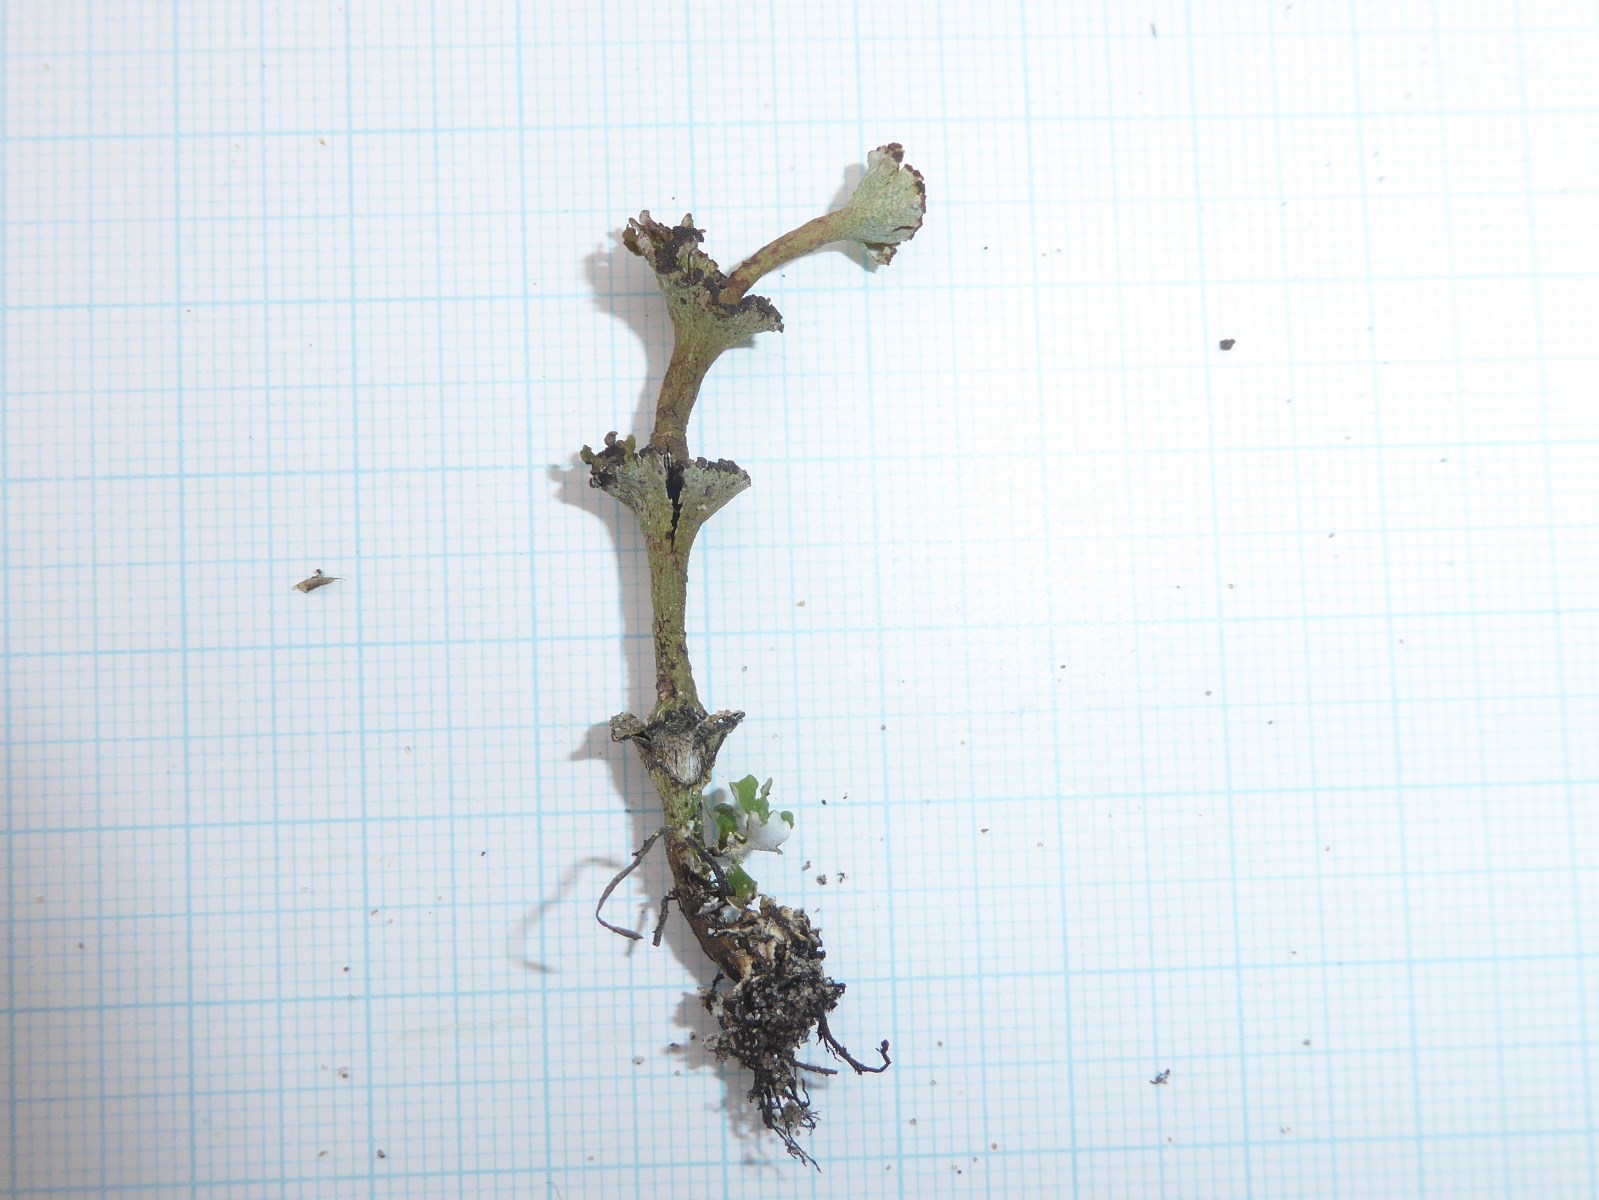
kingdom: Fungi
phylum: Ascomycota
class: Lecanoromycetes
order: Lecanorales
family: Cladoniaceae
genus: Cladonia
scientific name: Cladonia cervicornis
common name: etage-bægerlav
